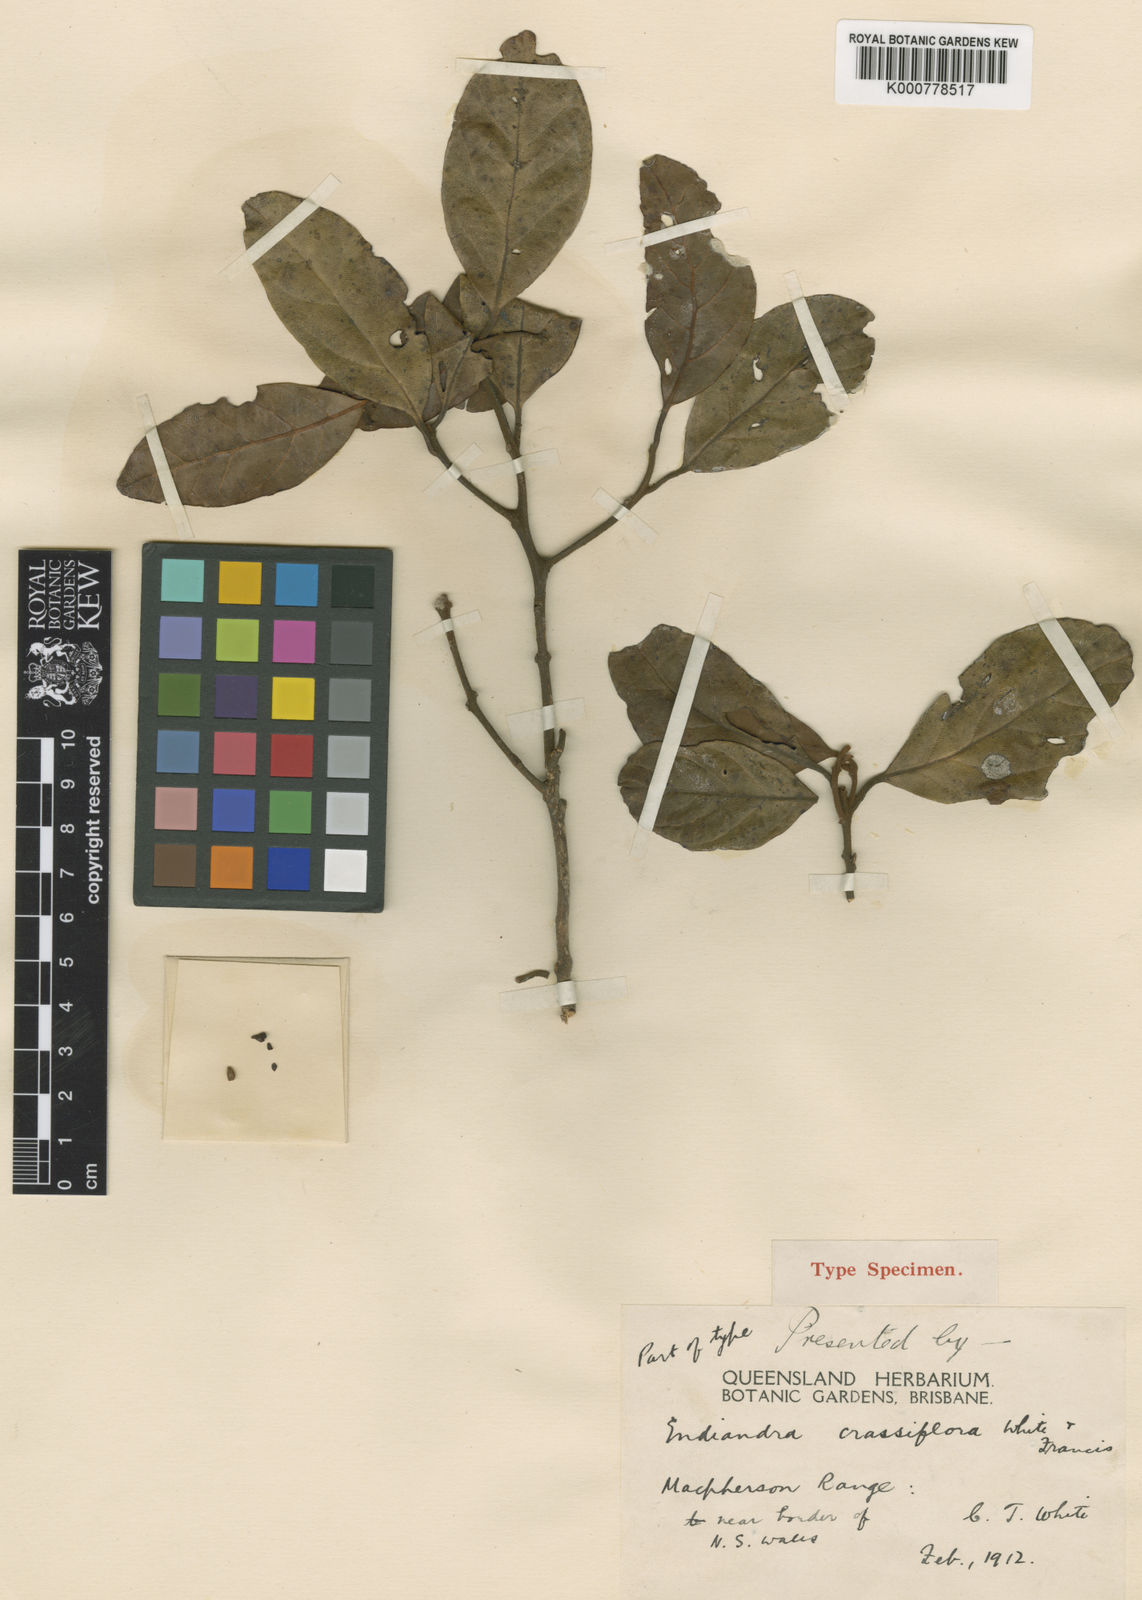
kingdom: Plantae
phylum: Tracheophyta
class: Magnoliopsida
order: Laurales
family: Lauraceae
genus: Endiandra
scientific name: Endiandra crassiflora
